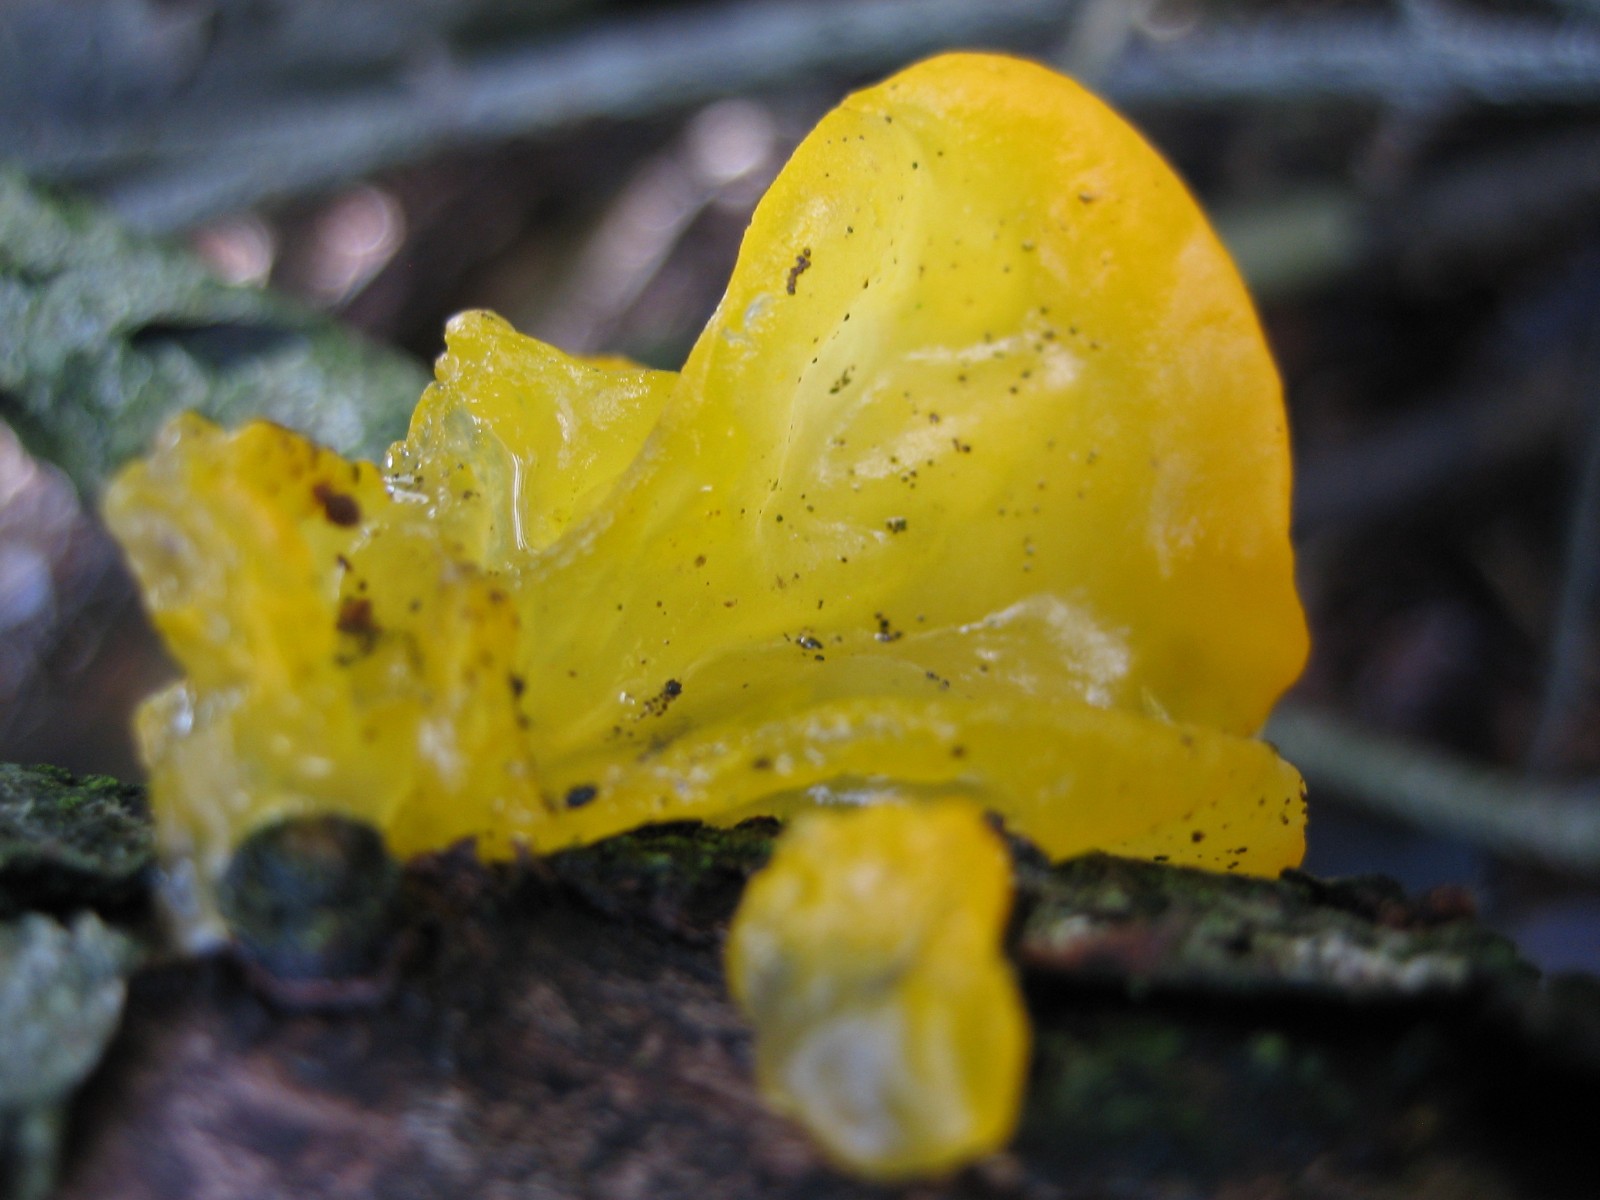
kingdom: Fungi
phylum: Basidiomycota
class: Tremellomycetes
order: Tremellales
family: Tremellaceae
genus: Tremella
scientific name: Tremella mesenterica
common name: gul bævresvamp
